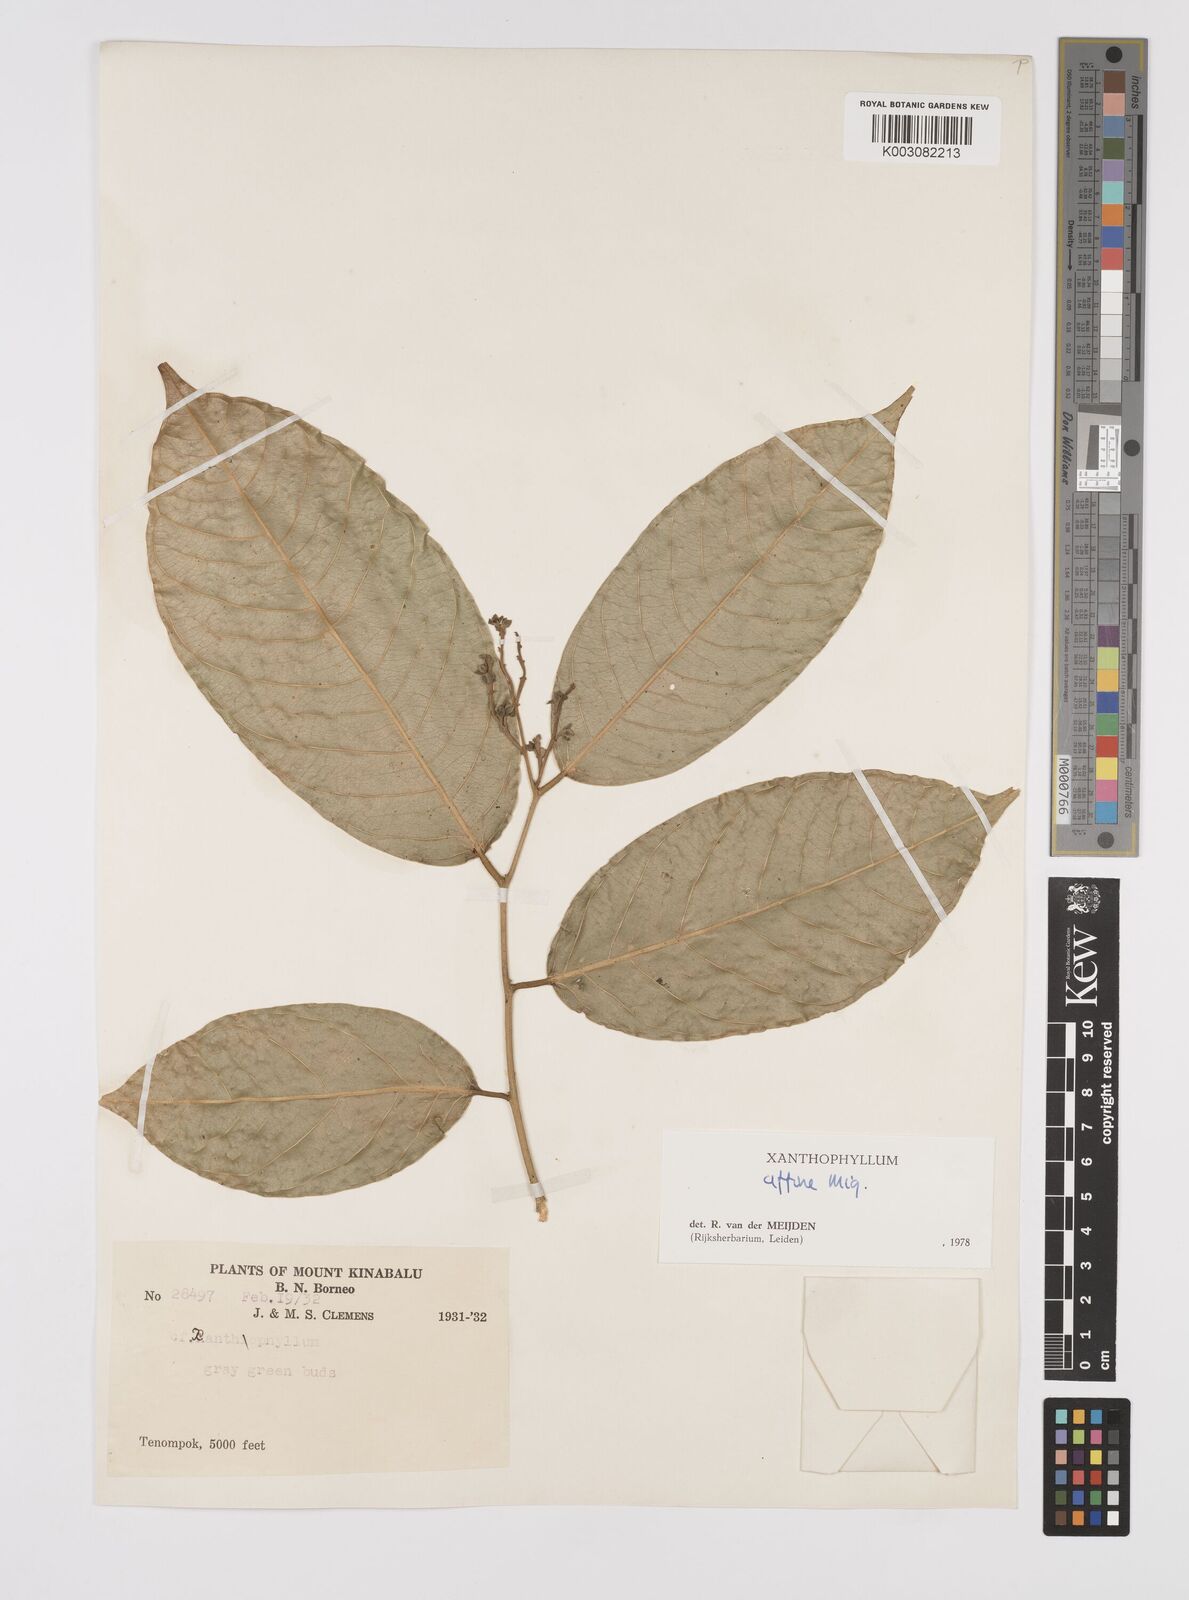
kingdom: Plantae
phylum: Tracheophyta
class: Magnoliopsida
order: Fabales
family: Polygalaceae
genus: Xanthophyllum
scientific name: Xanthophyllum flavescens
